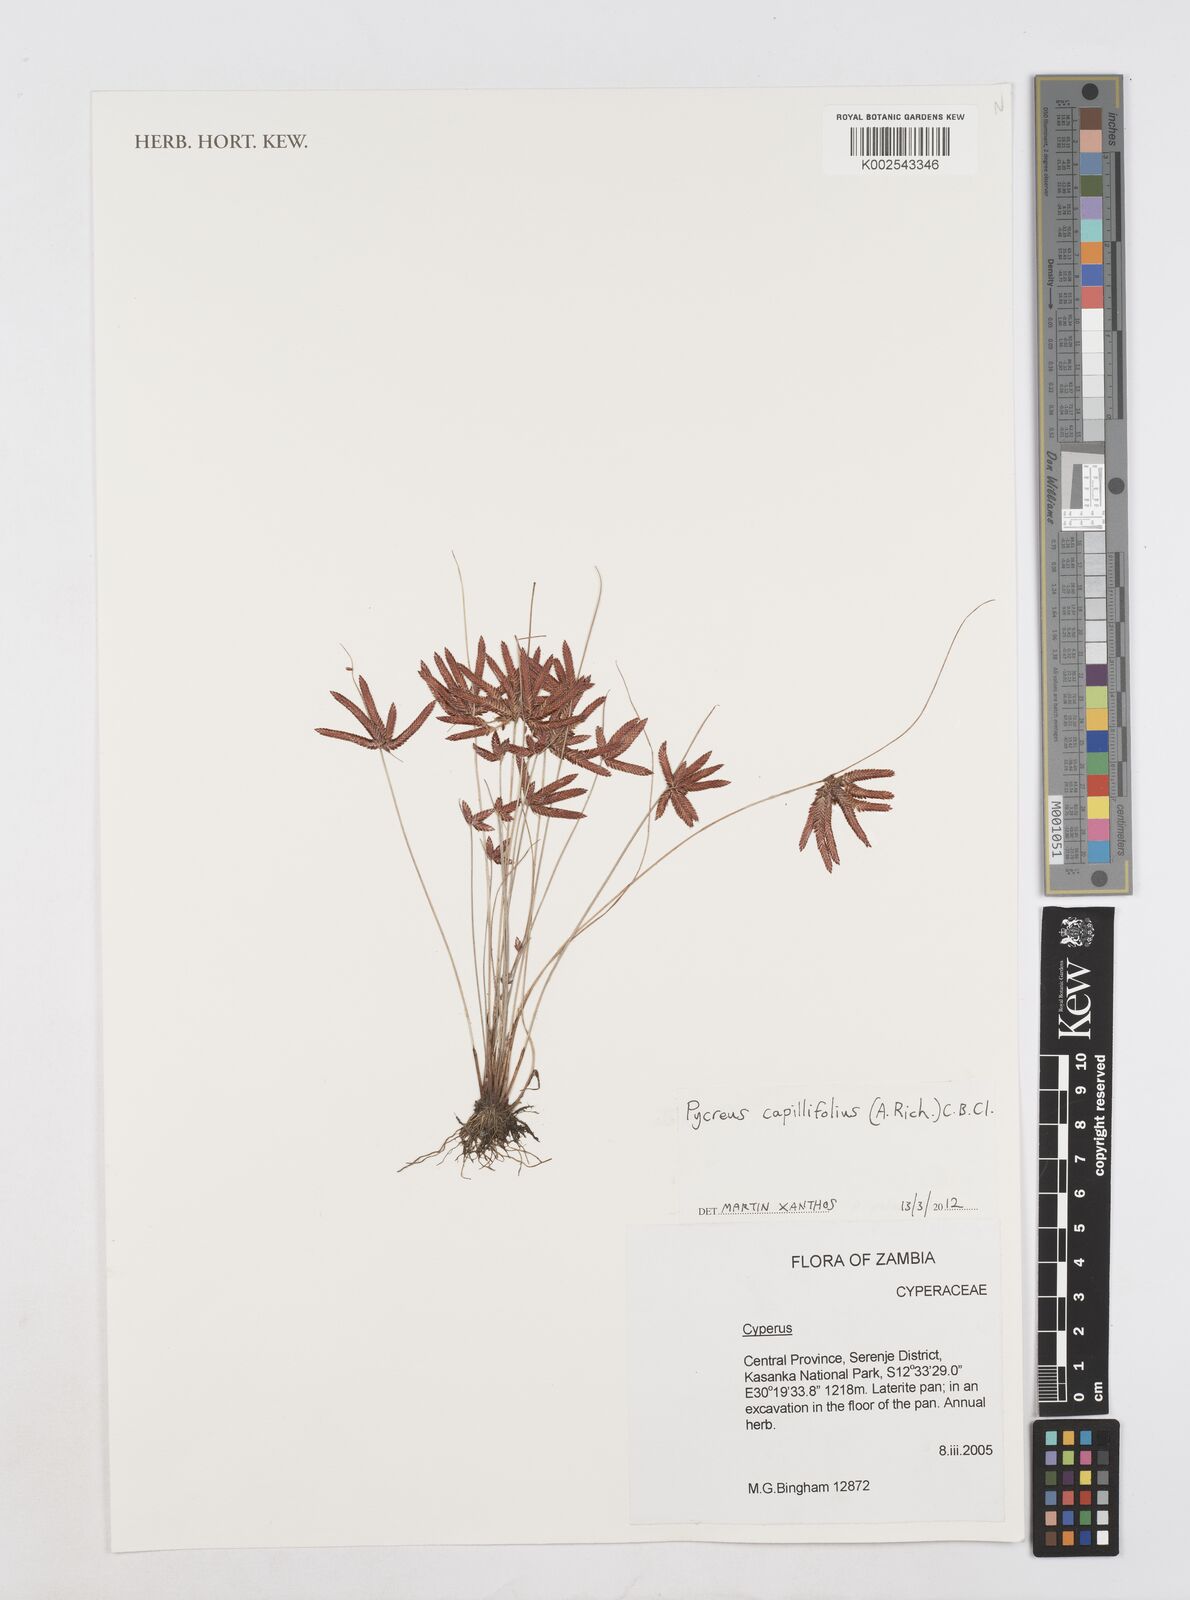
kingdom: Plantae
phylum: Tracheophyta
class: Liliopsida
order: Poales
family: Cyperaceae
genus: Cyperus
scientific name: Cyperus
